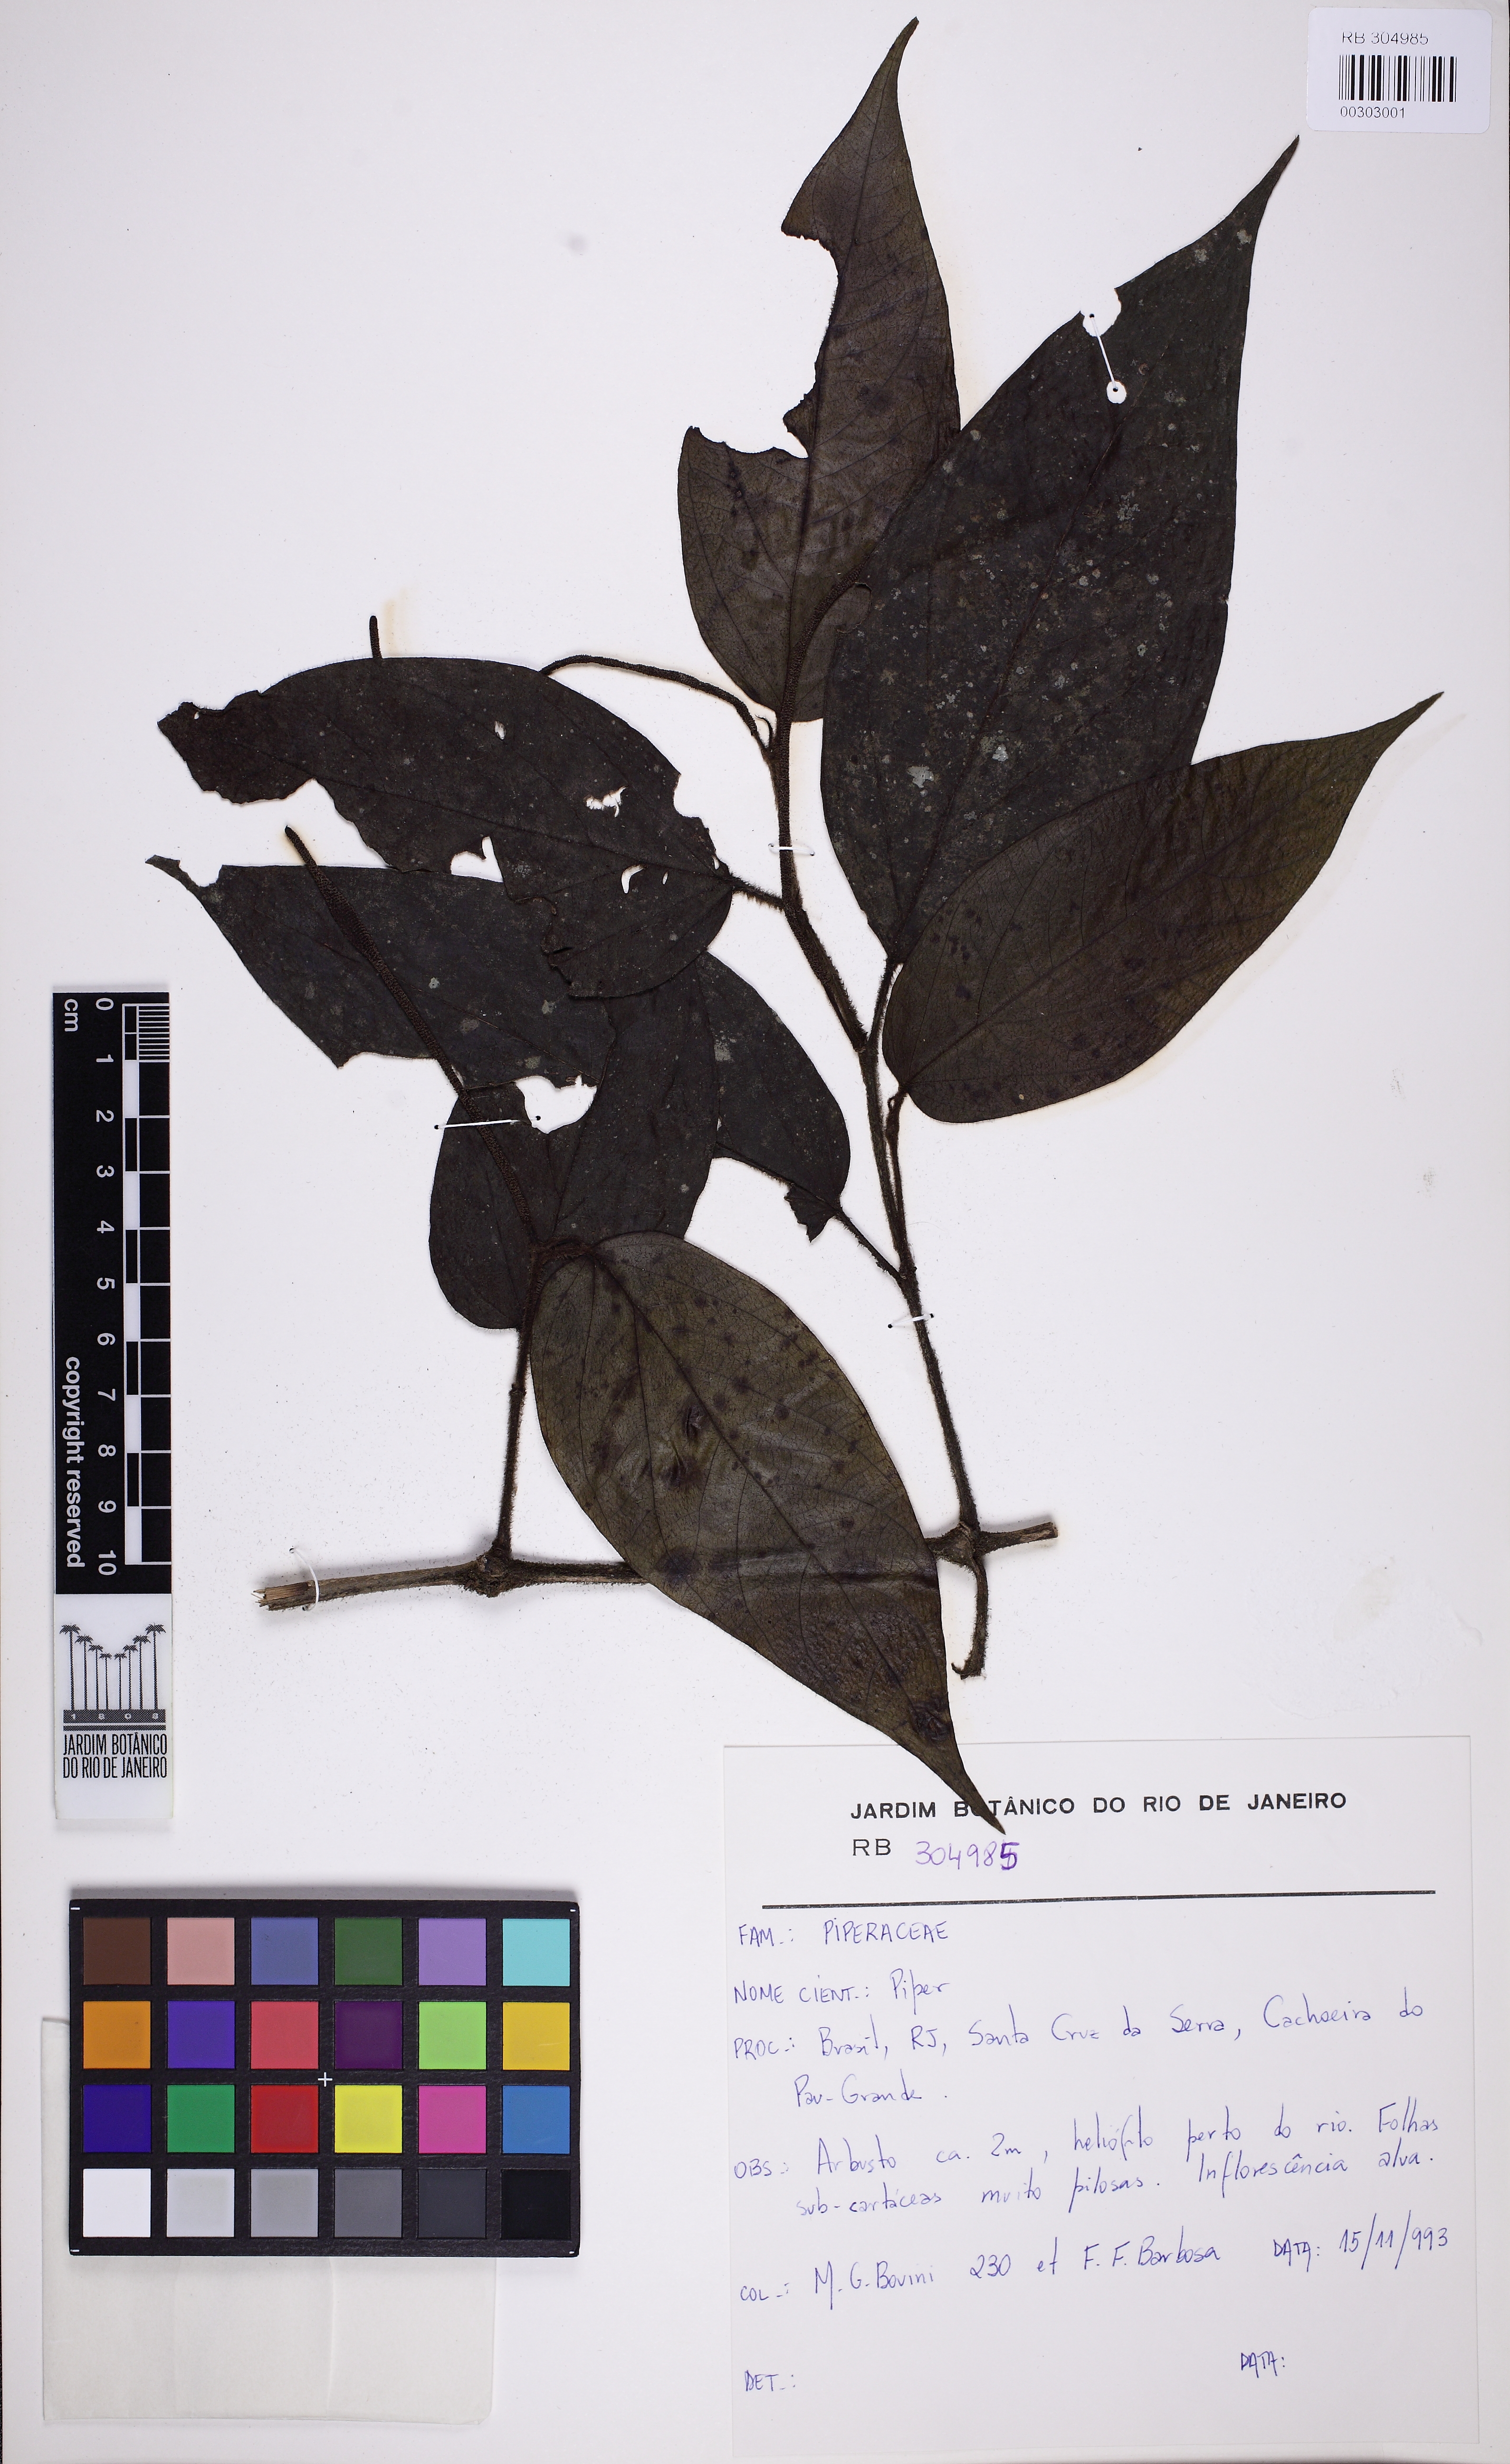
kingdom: Plantae
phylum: Tracheophyta
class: Magnoliopsida
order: Piperales
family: Piperaceae
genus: Piper
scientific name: Piper cubataonum
